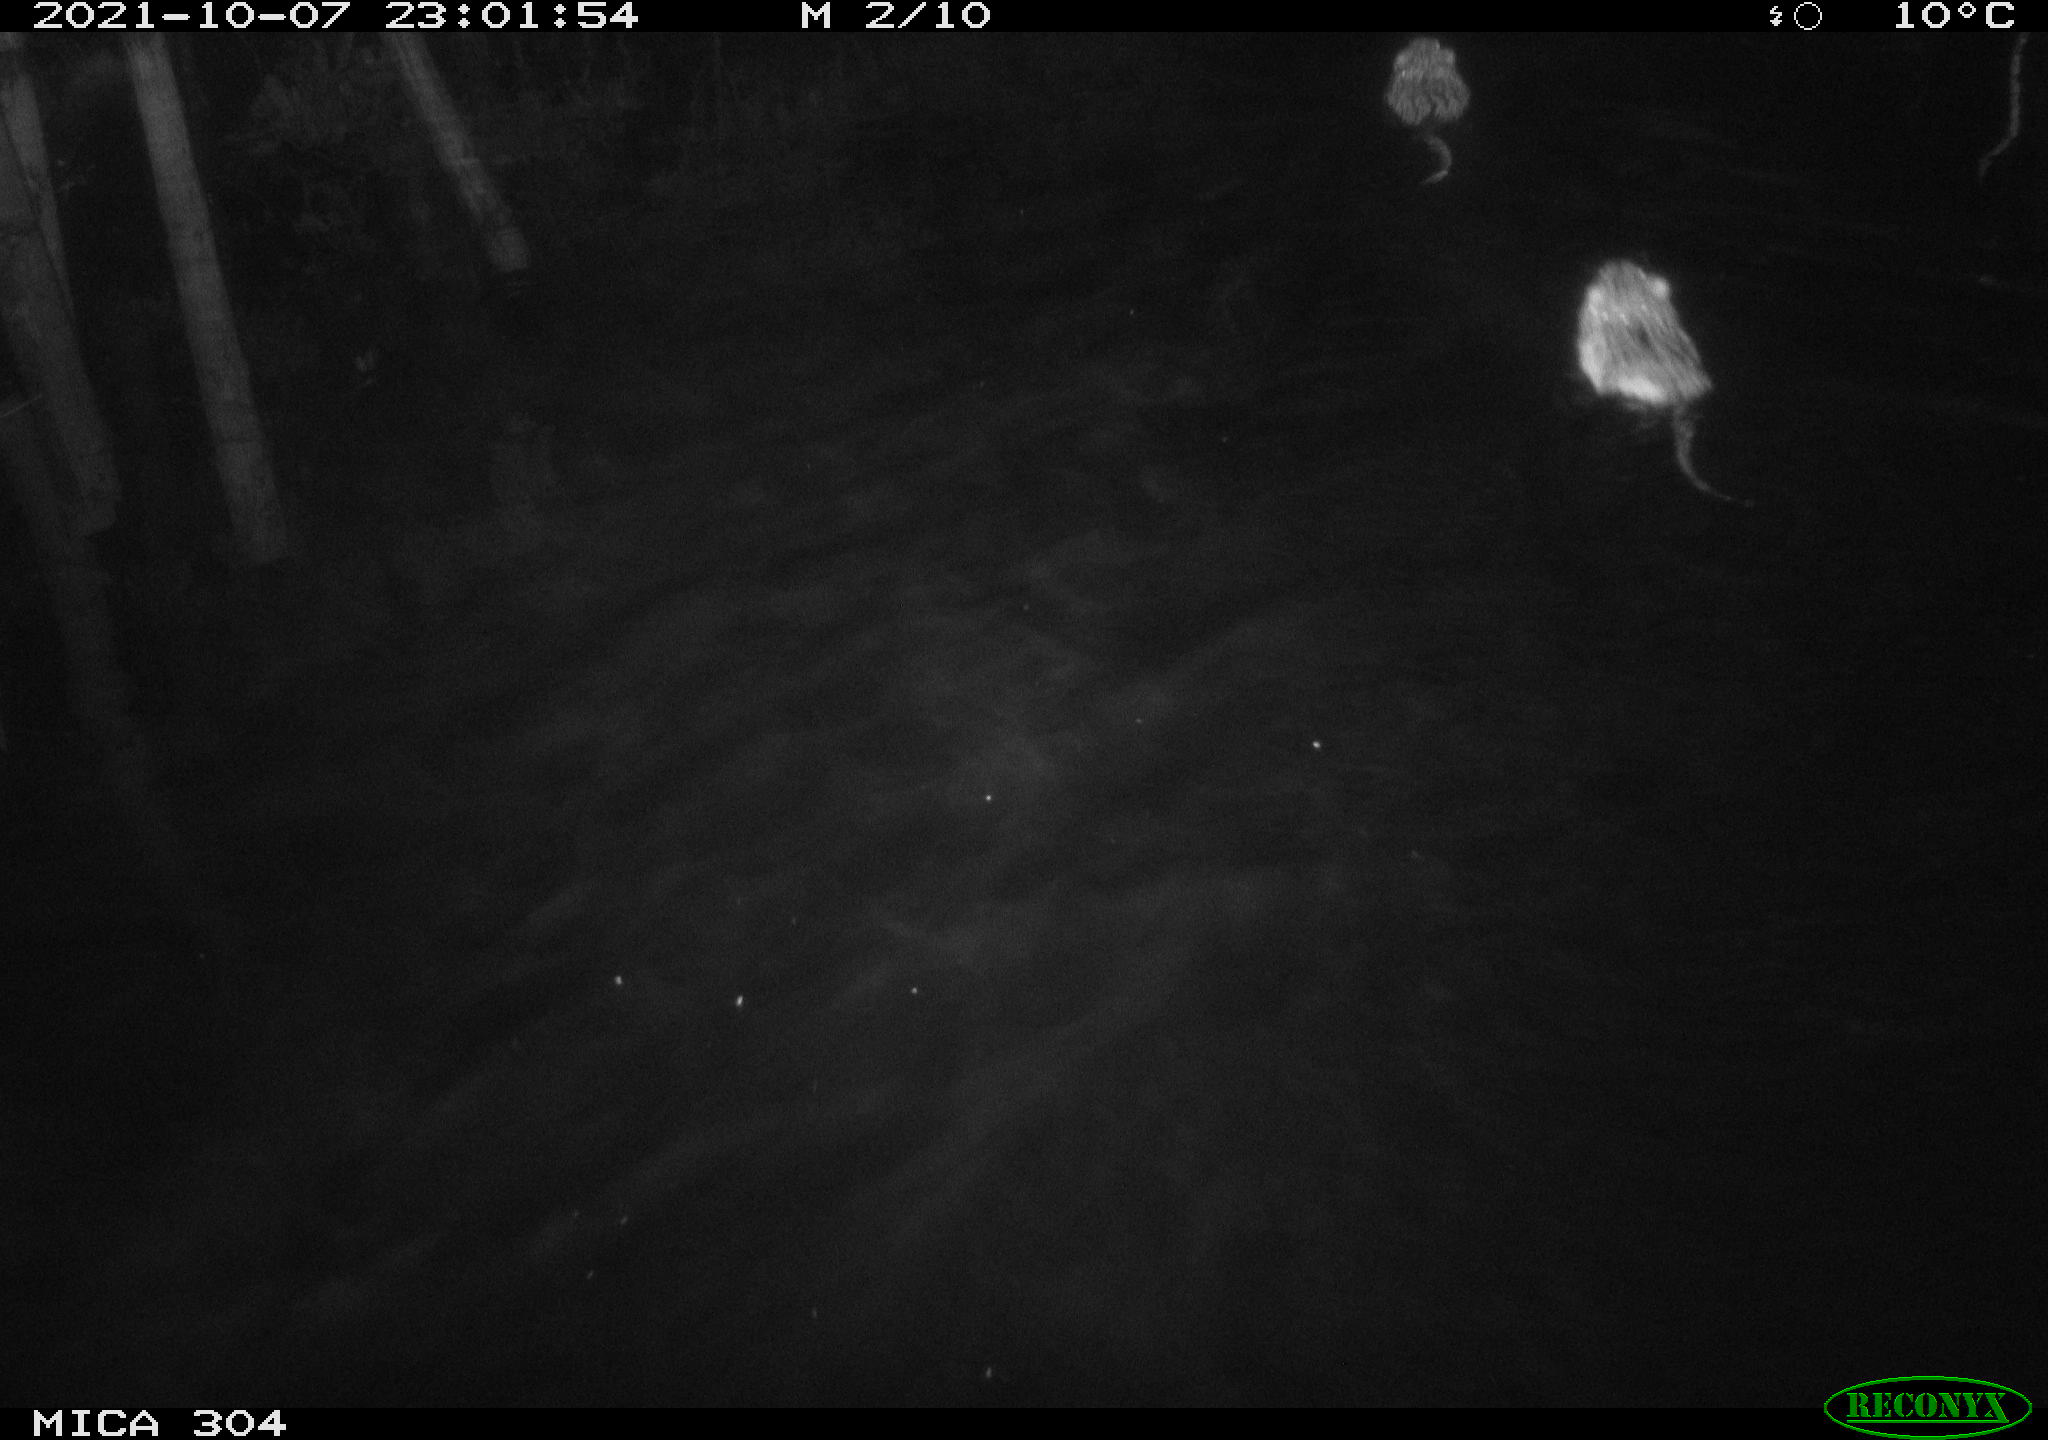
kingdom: Animalia
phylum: Chordata
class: Mammalia
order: Rodentia
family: Cricetidae
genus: Ondatra
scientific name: Ondatra zibethicus
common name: Muskrat
